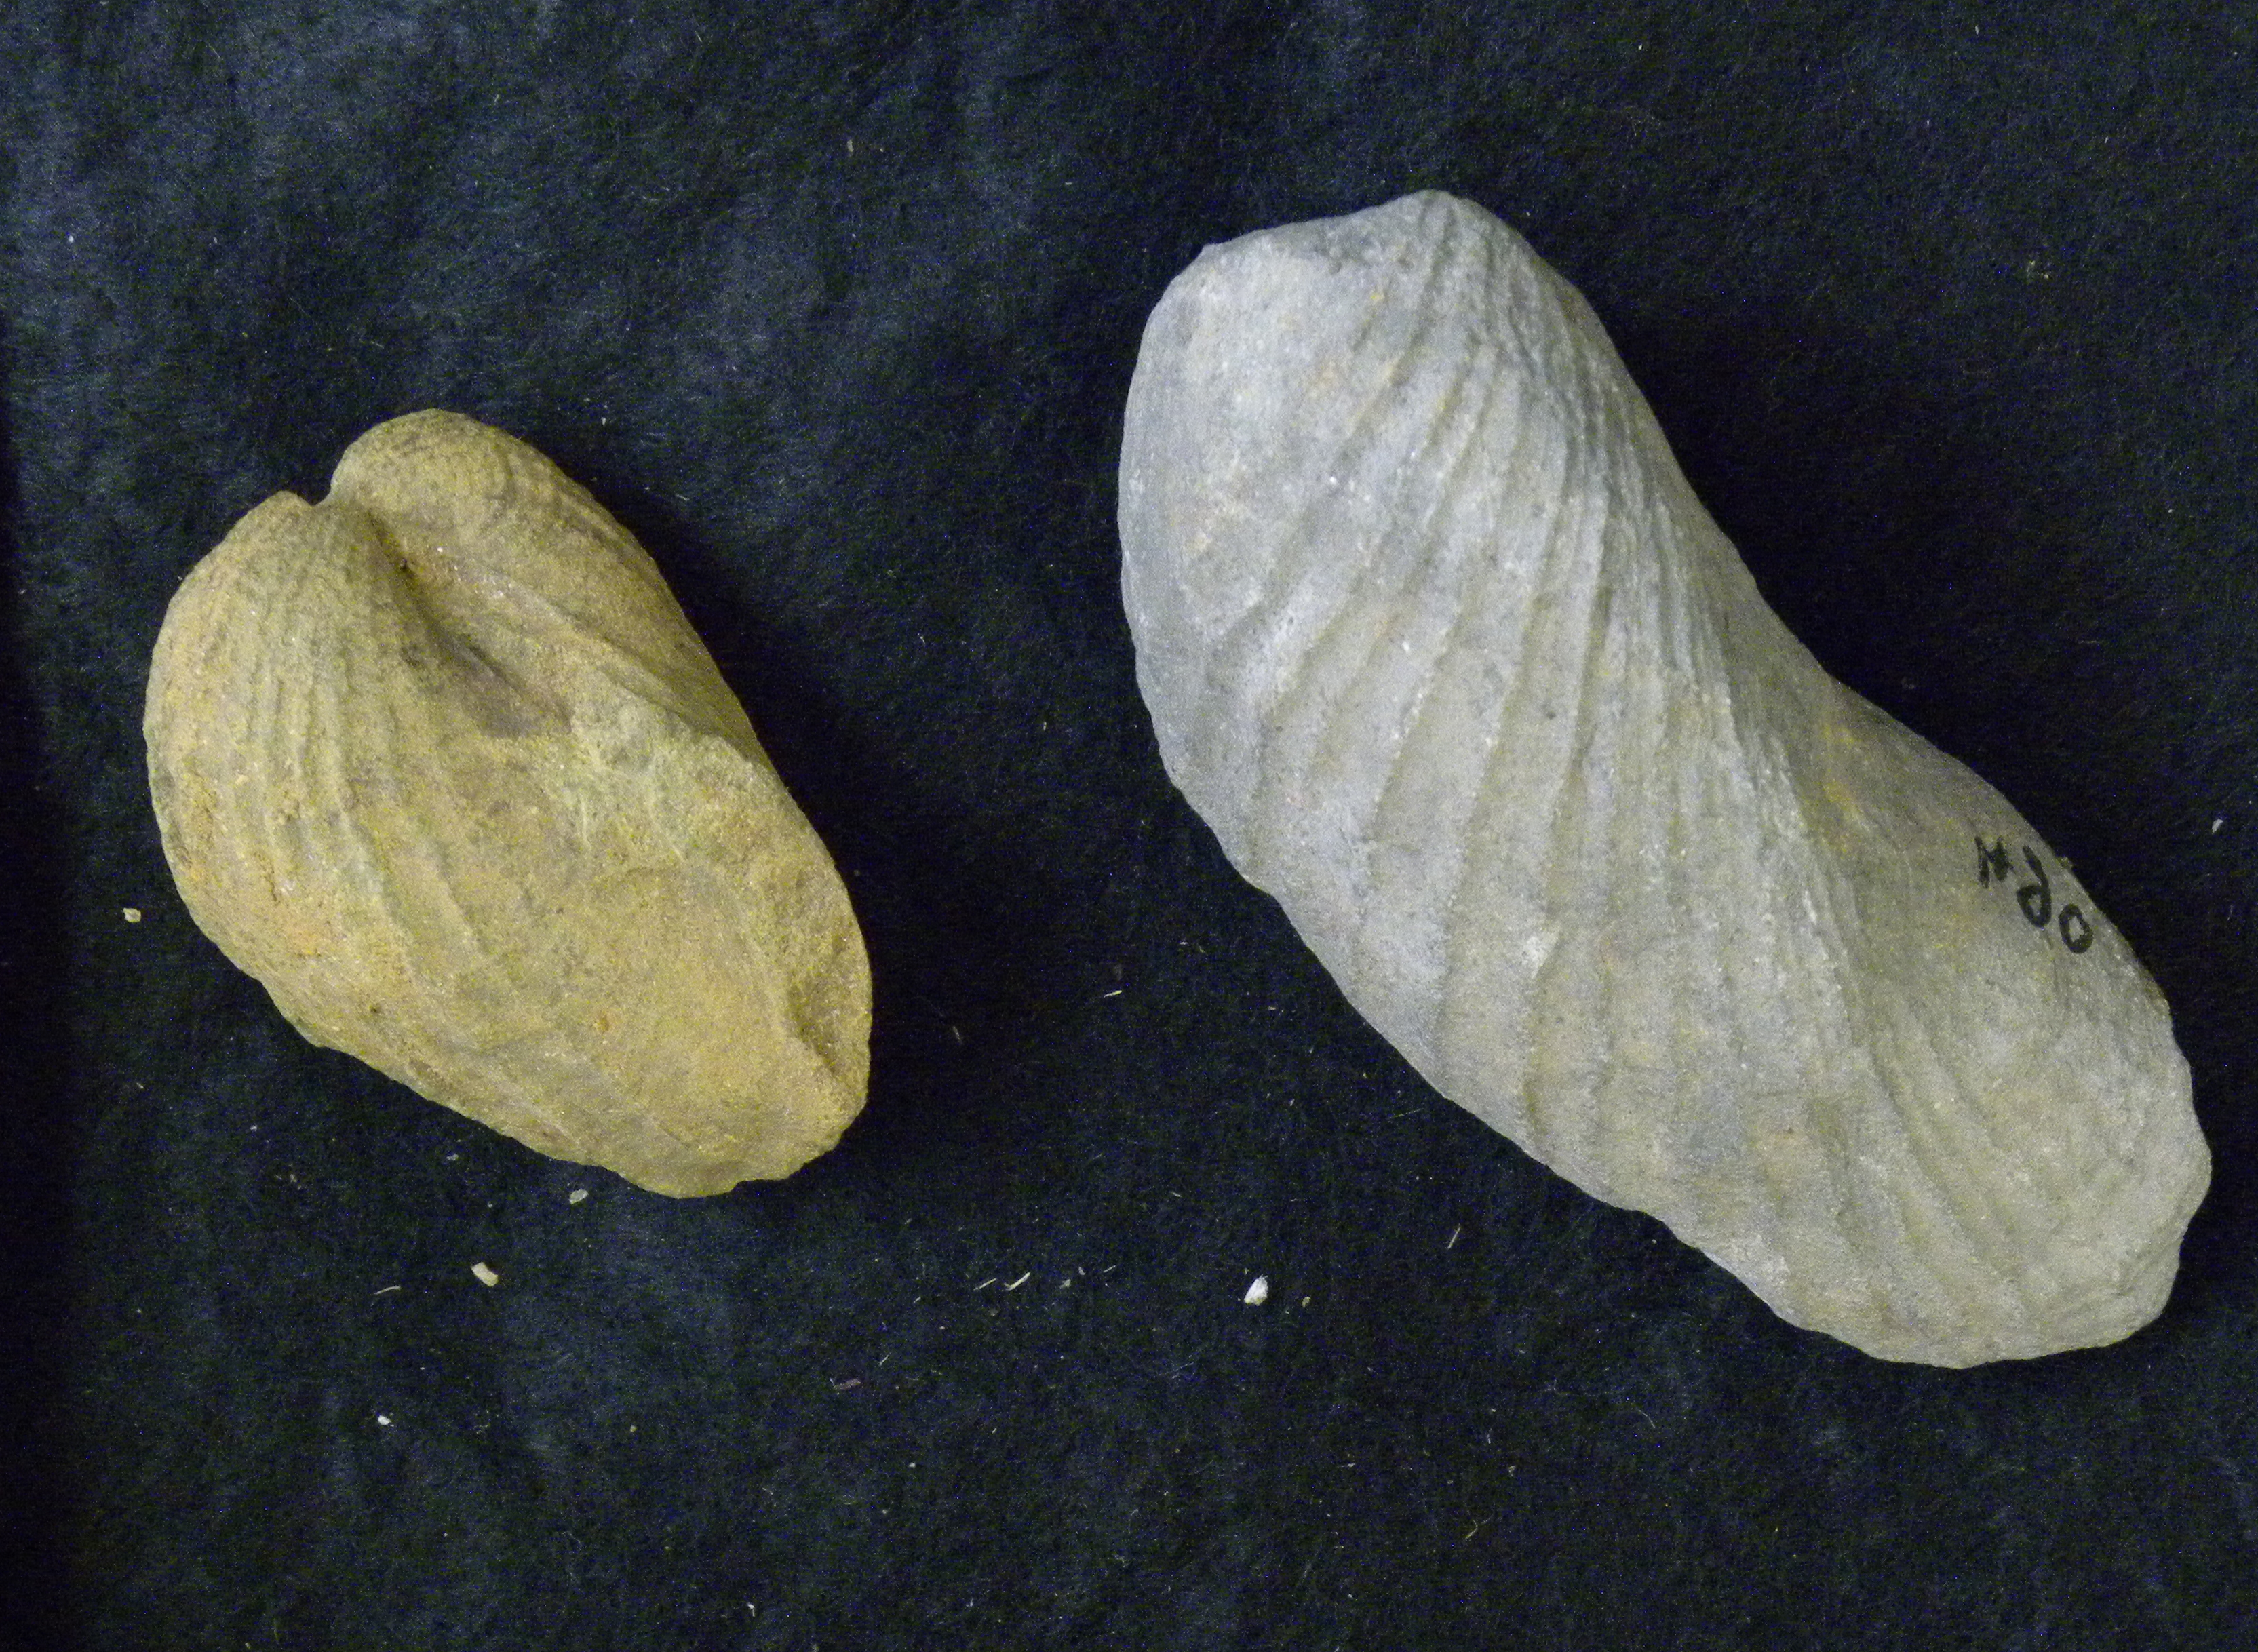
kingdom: Animalia
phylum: Mollusca
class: Bivalvia
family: Pholadomyidae
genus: Pholadomya
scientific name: Pholadomya fidicula
